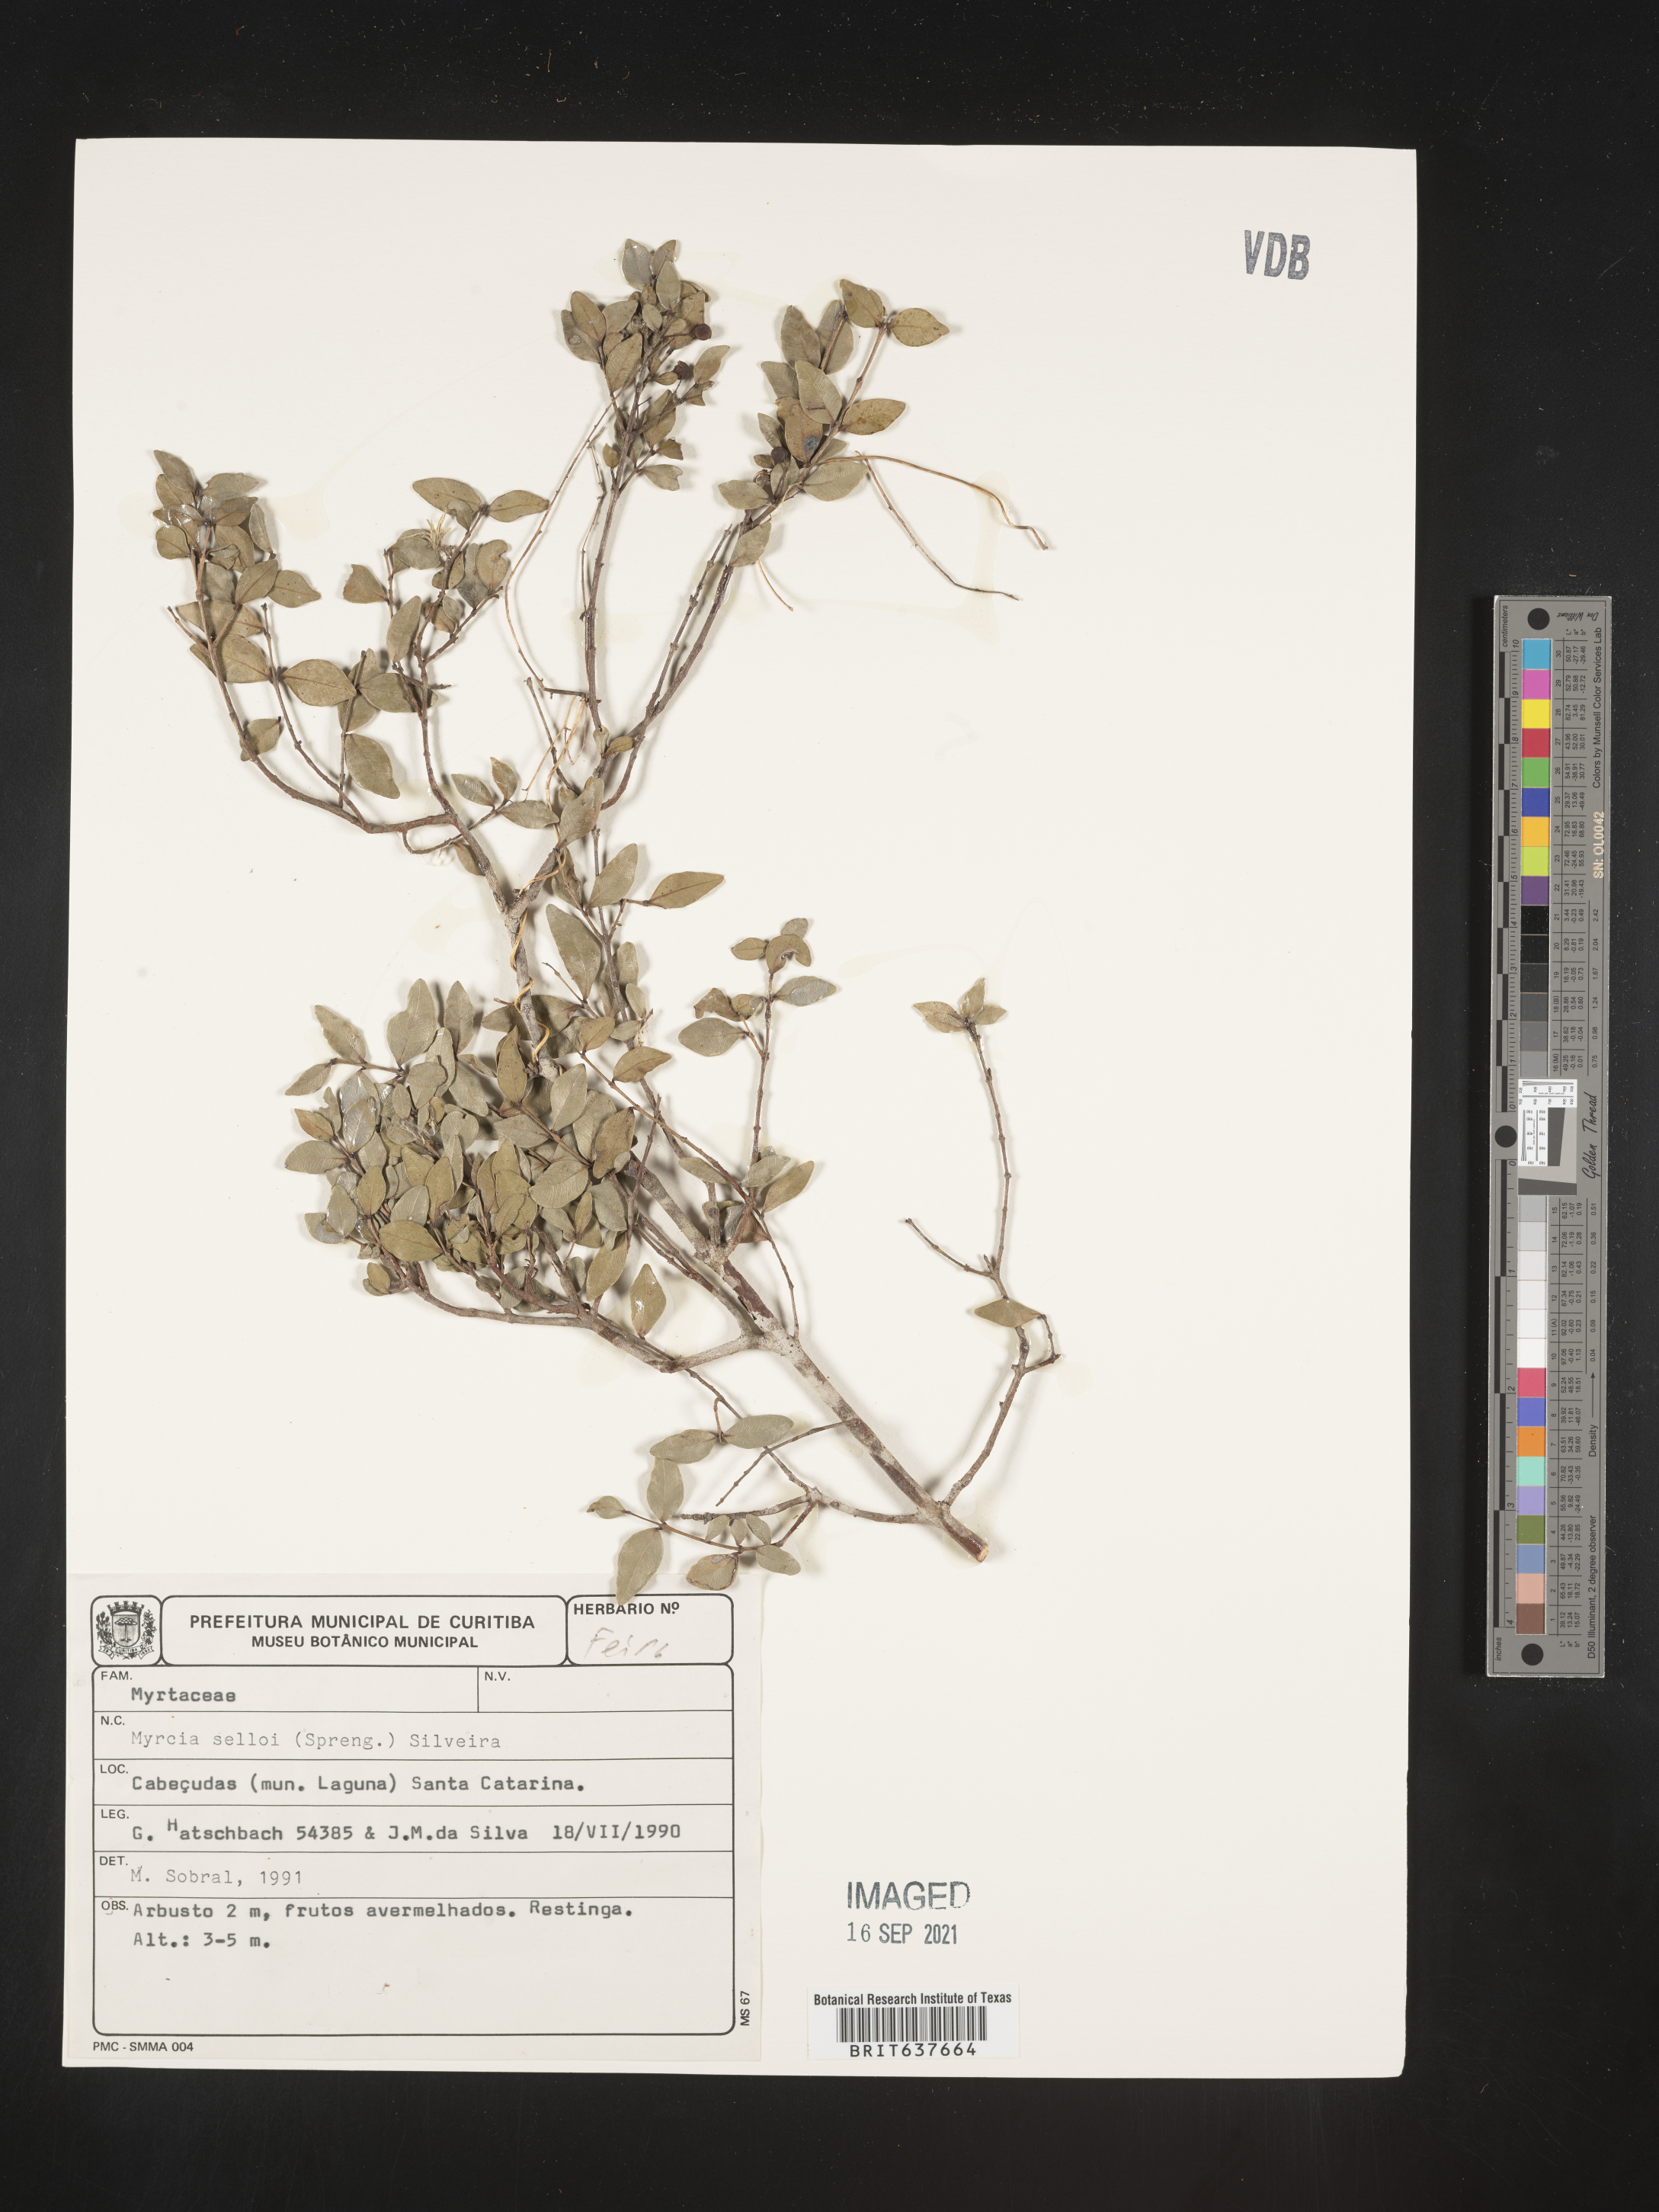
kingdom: Plantae
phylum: Tracheophyta
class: Magnoliopsida
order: Myrtales
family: Myrtaceae
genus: Myrcia
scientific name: Myrcia
